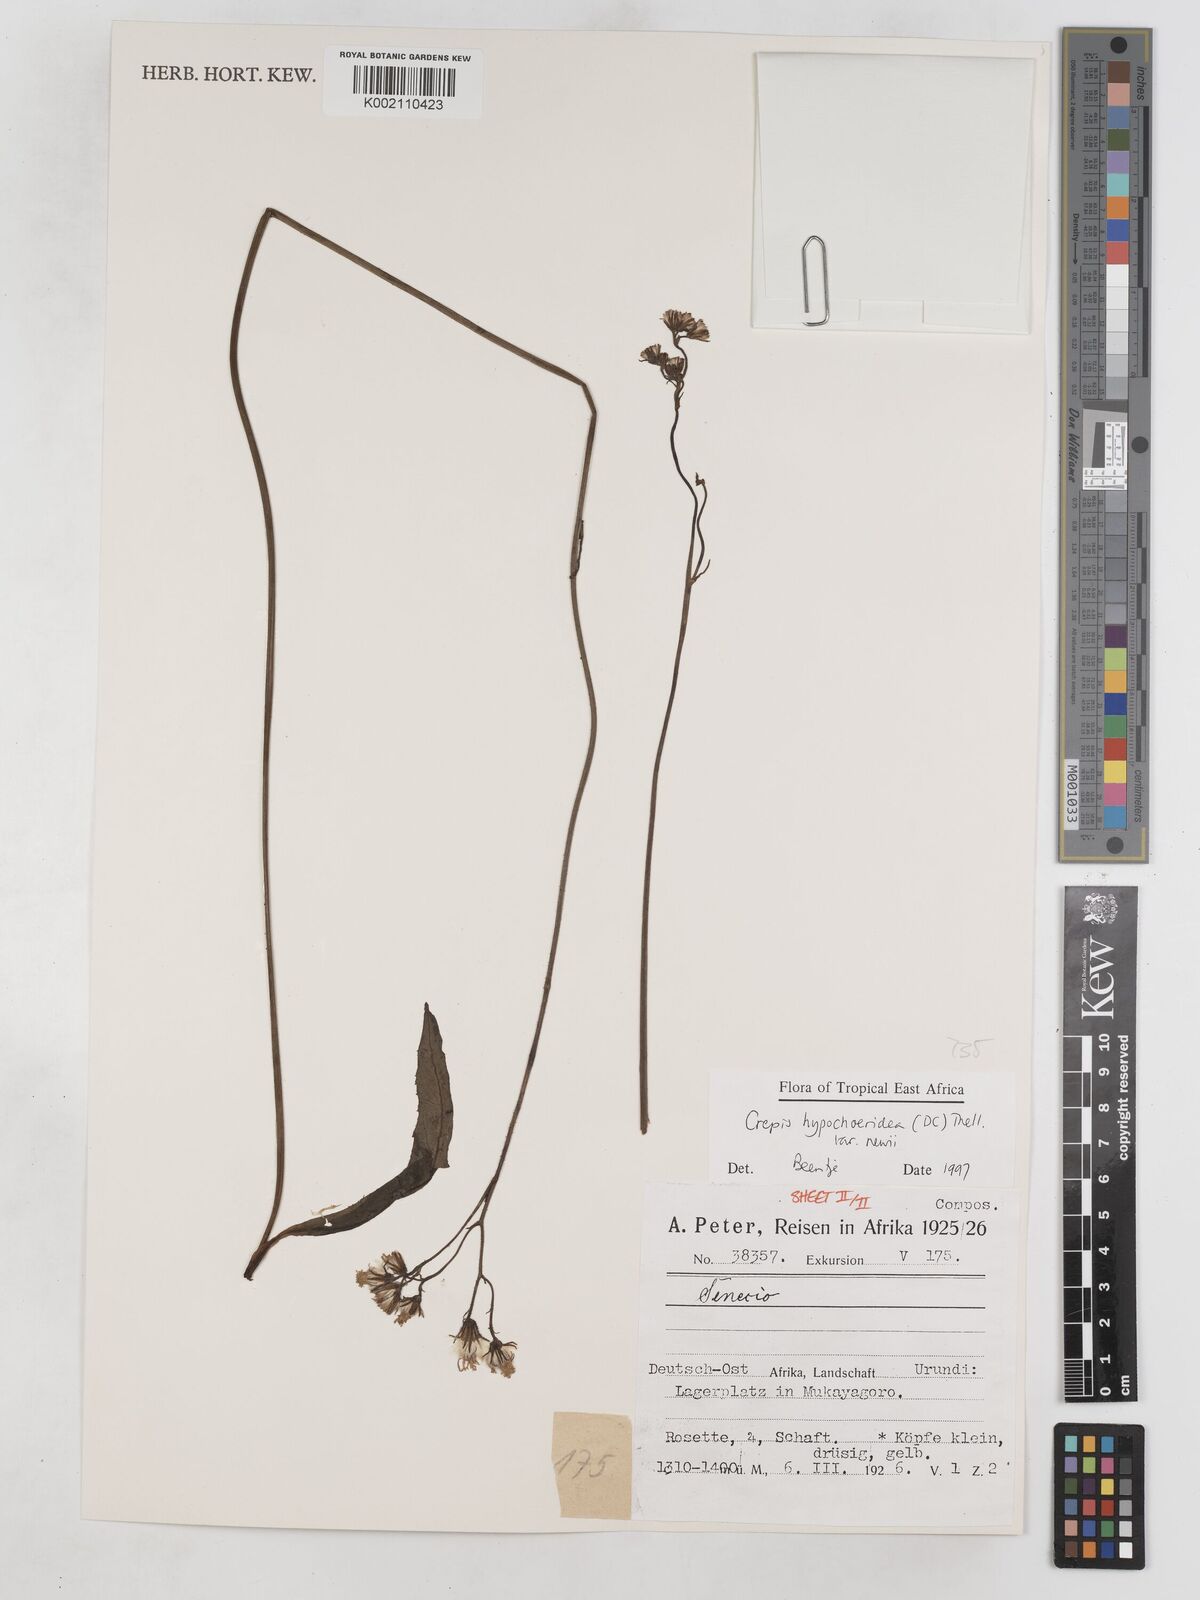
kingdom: Plantae
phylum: Tracheophyta
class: Magnoliopsida
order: Asterales
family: Asteraceae
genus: Crepis
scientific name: Crepis hypochoeridea
